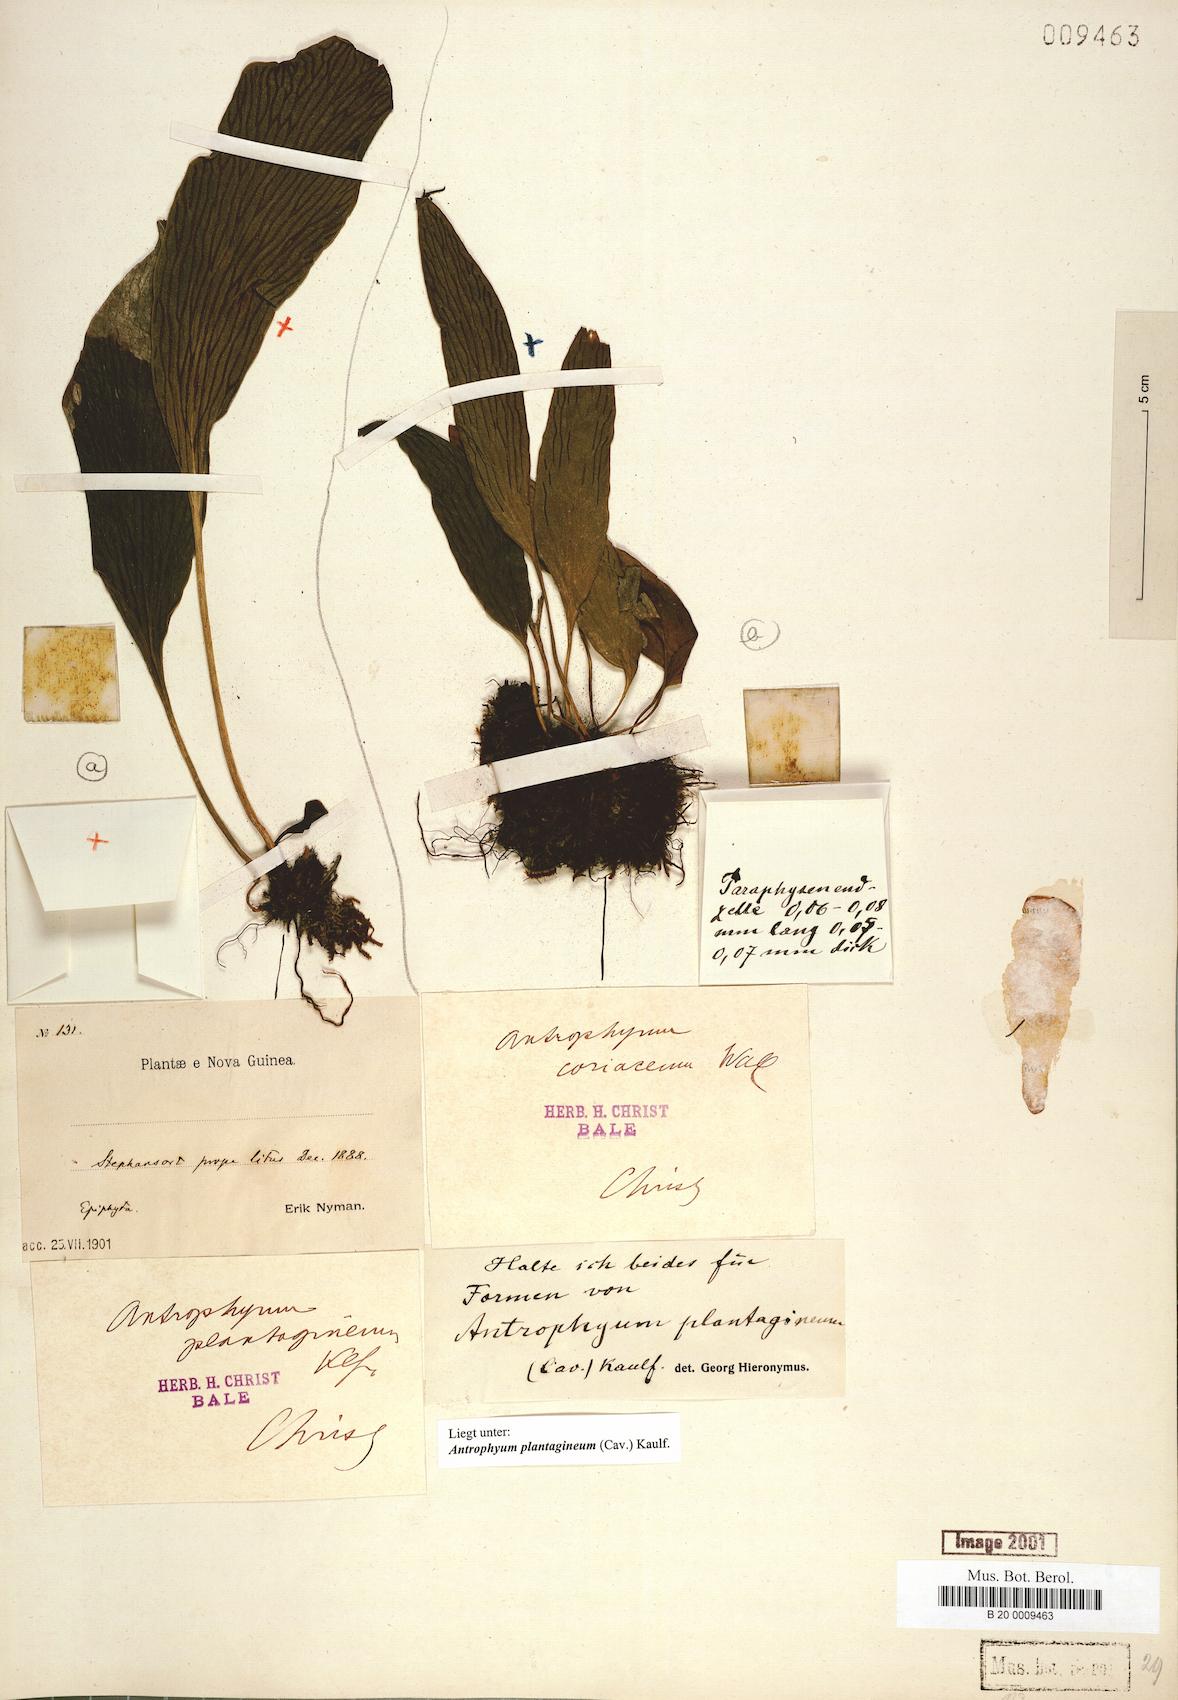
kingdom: Plantae
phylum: Tracheophyta
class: Polypodiopsida
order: Polypodiales
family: Pteridaceae
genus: Antrophyum
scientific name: Antrophyum plantagineum
